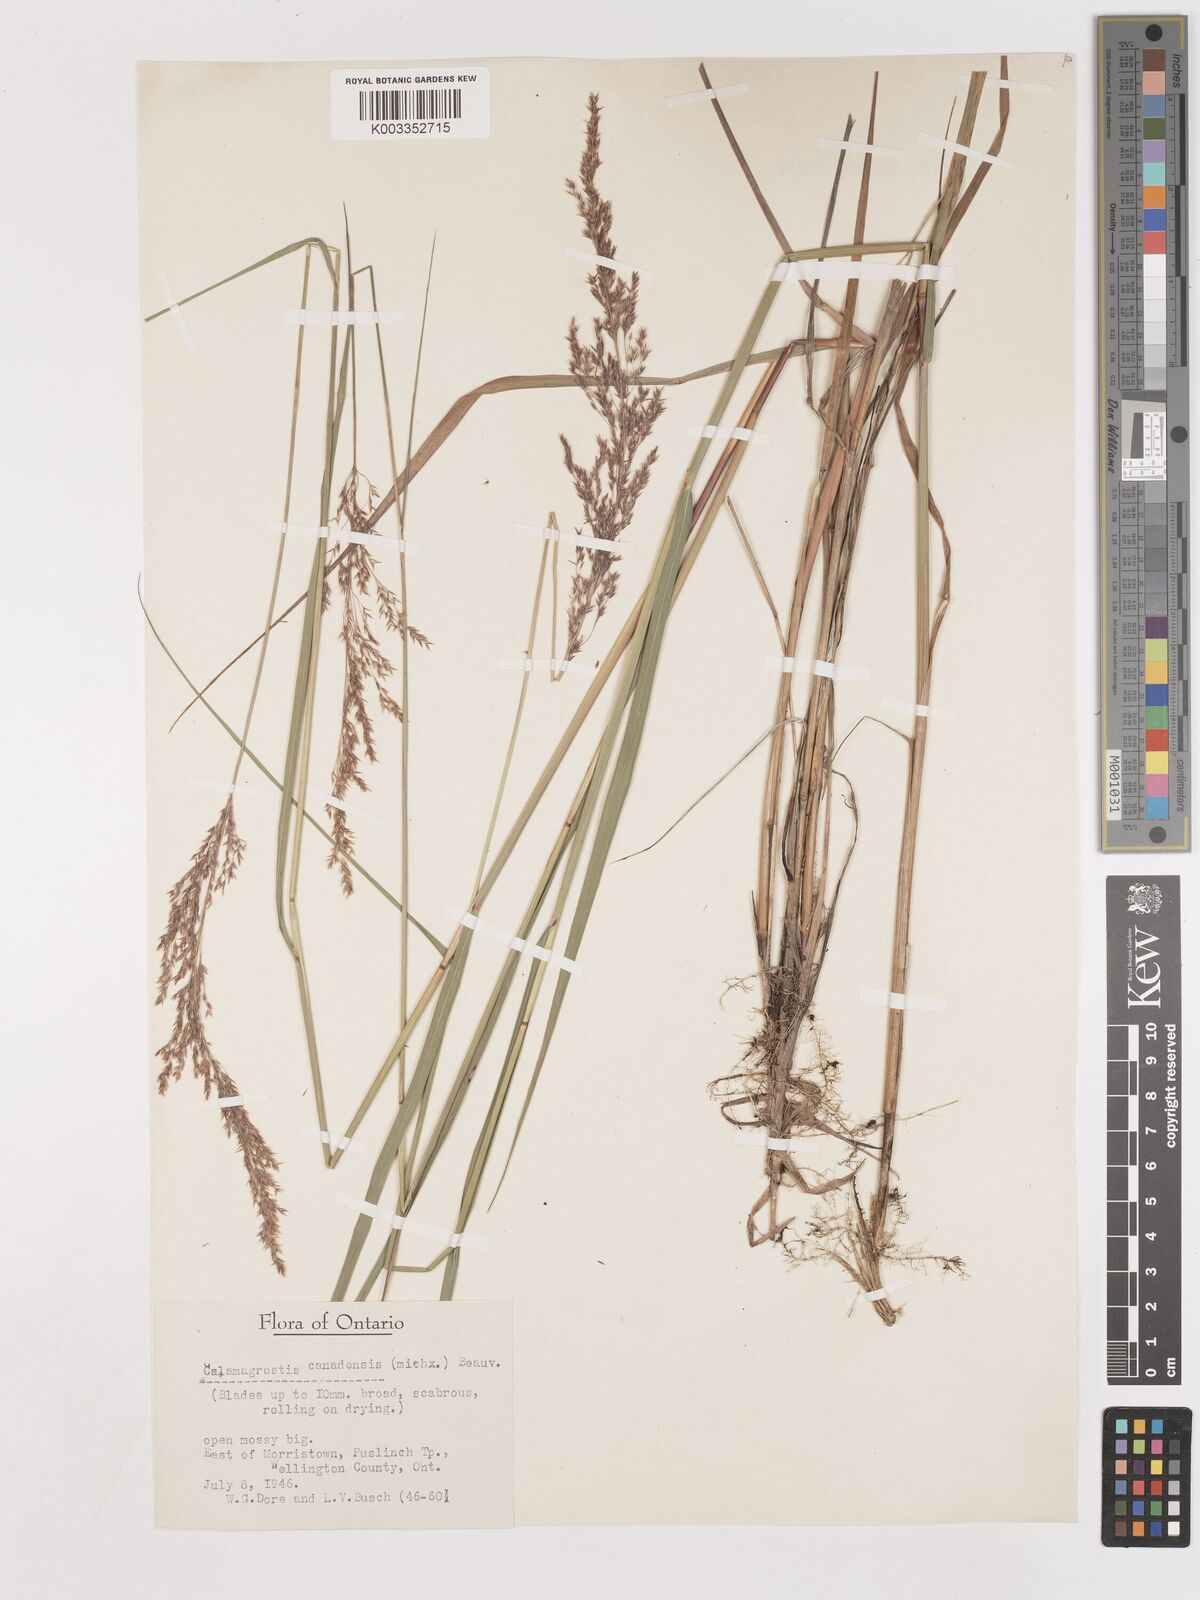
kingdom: Plantae
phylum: Tracheophyta
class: Liliopsida
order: Poales
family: Poaceae
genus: Calamagrostis
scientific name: Calamagrostis canadensis
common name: Canada bluejoint
